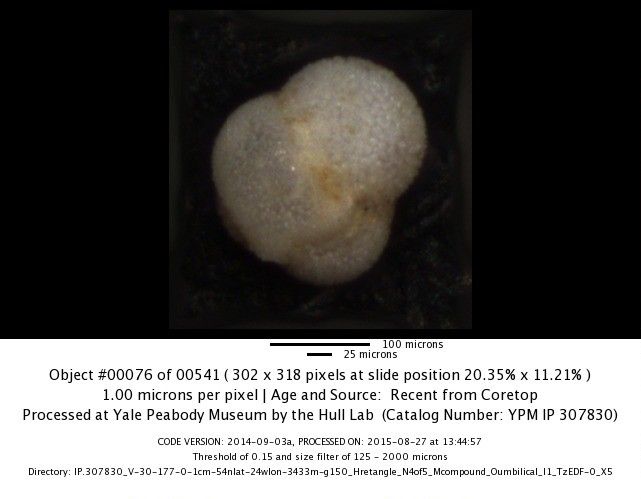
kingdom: Chromista
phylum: Foraminifera
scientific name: Foraminifera
